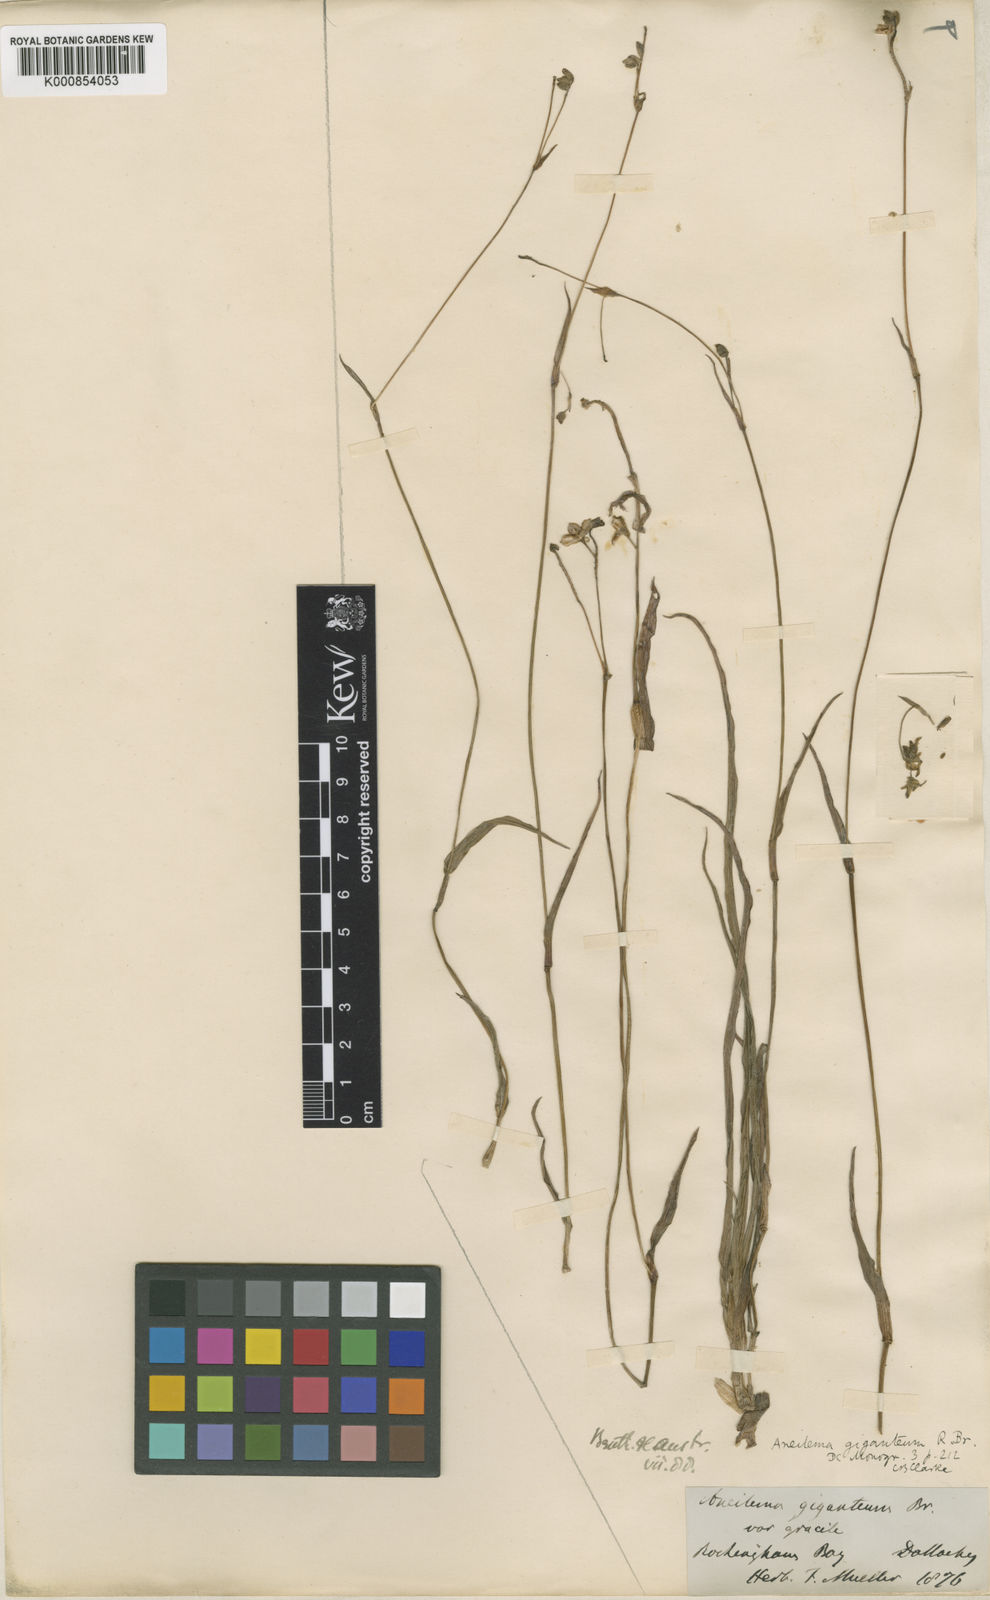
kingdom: Plantae
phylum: Tracheophyta
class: Liliopsida
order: Commelinales
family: Commelinaceae
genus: Murdannia
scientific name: Murdannia
